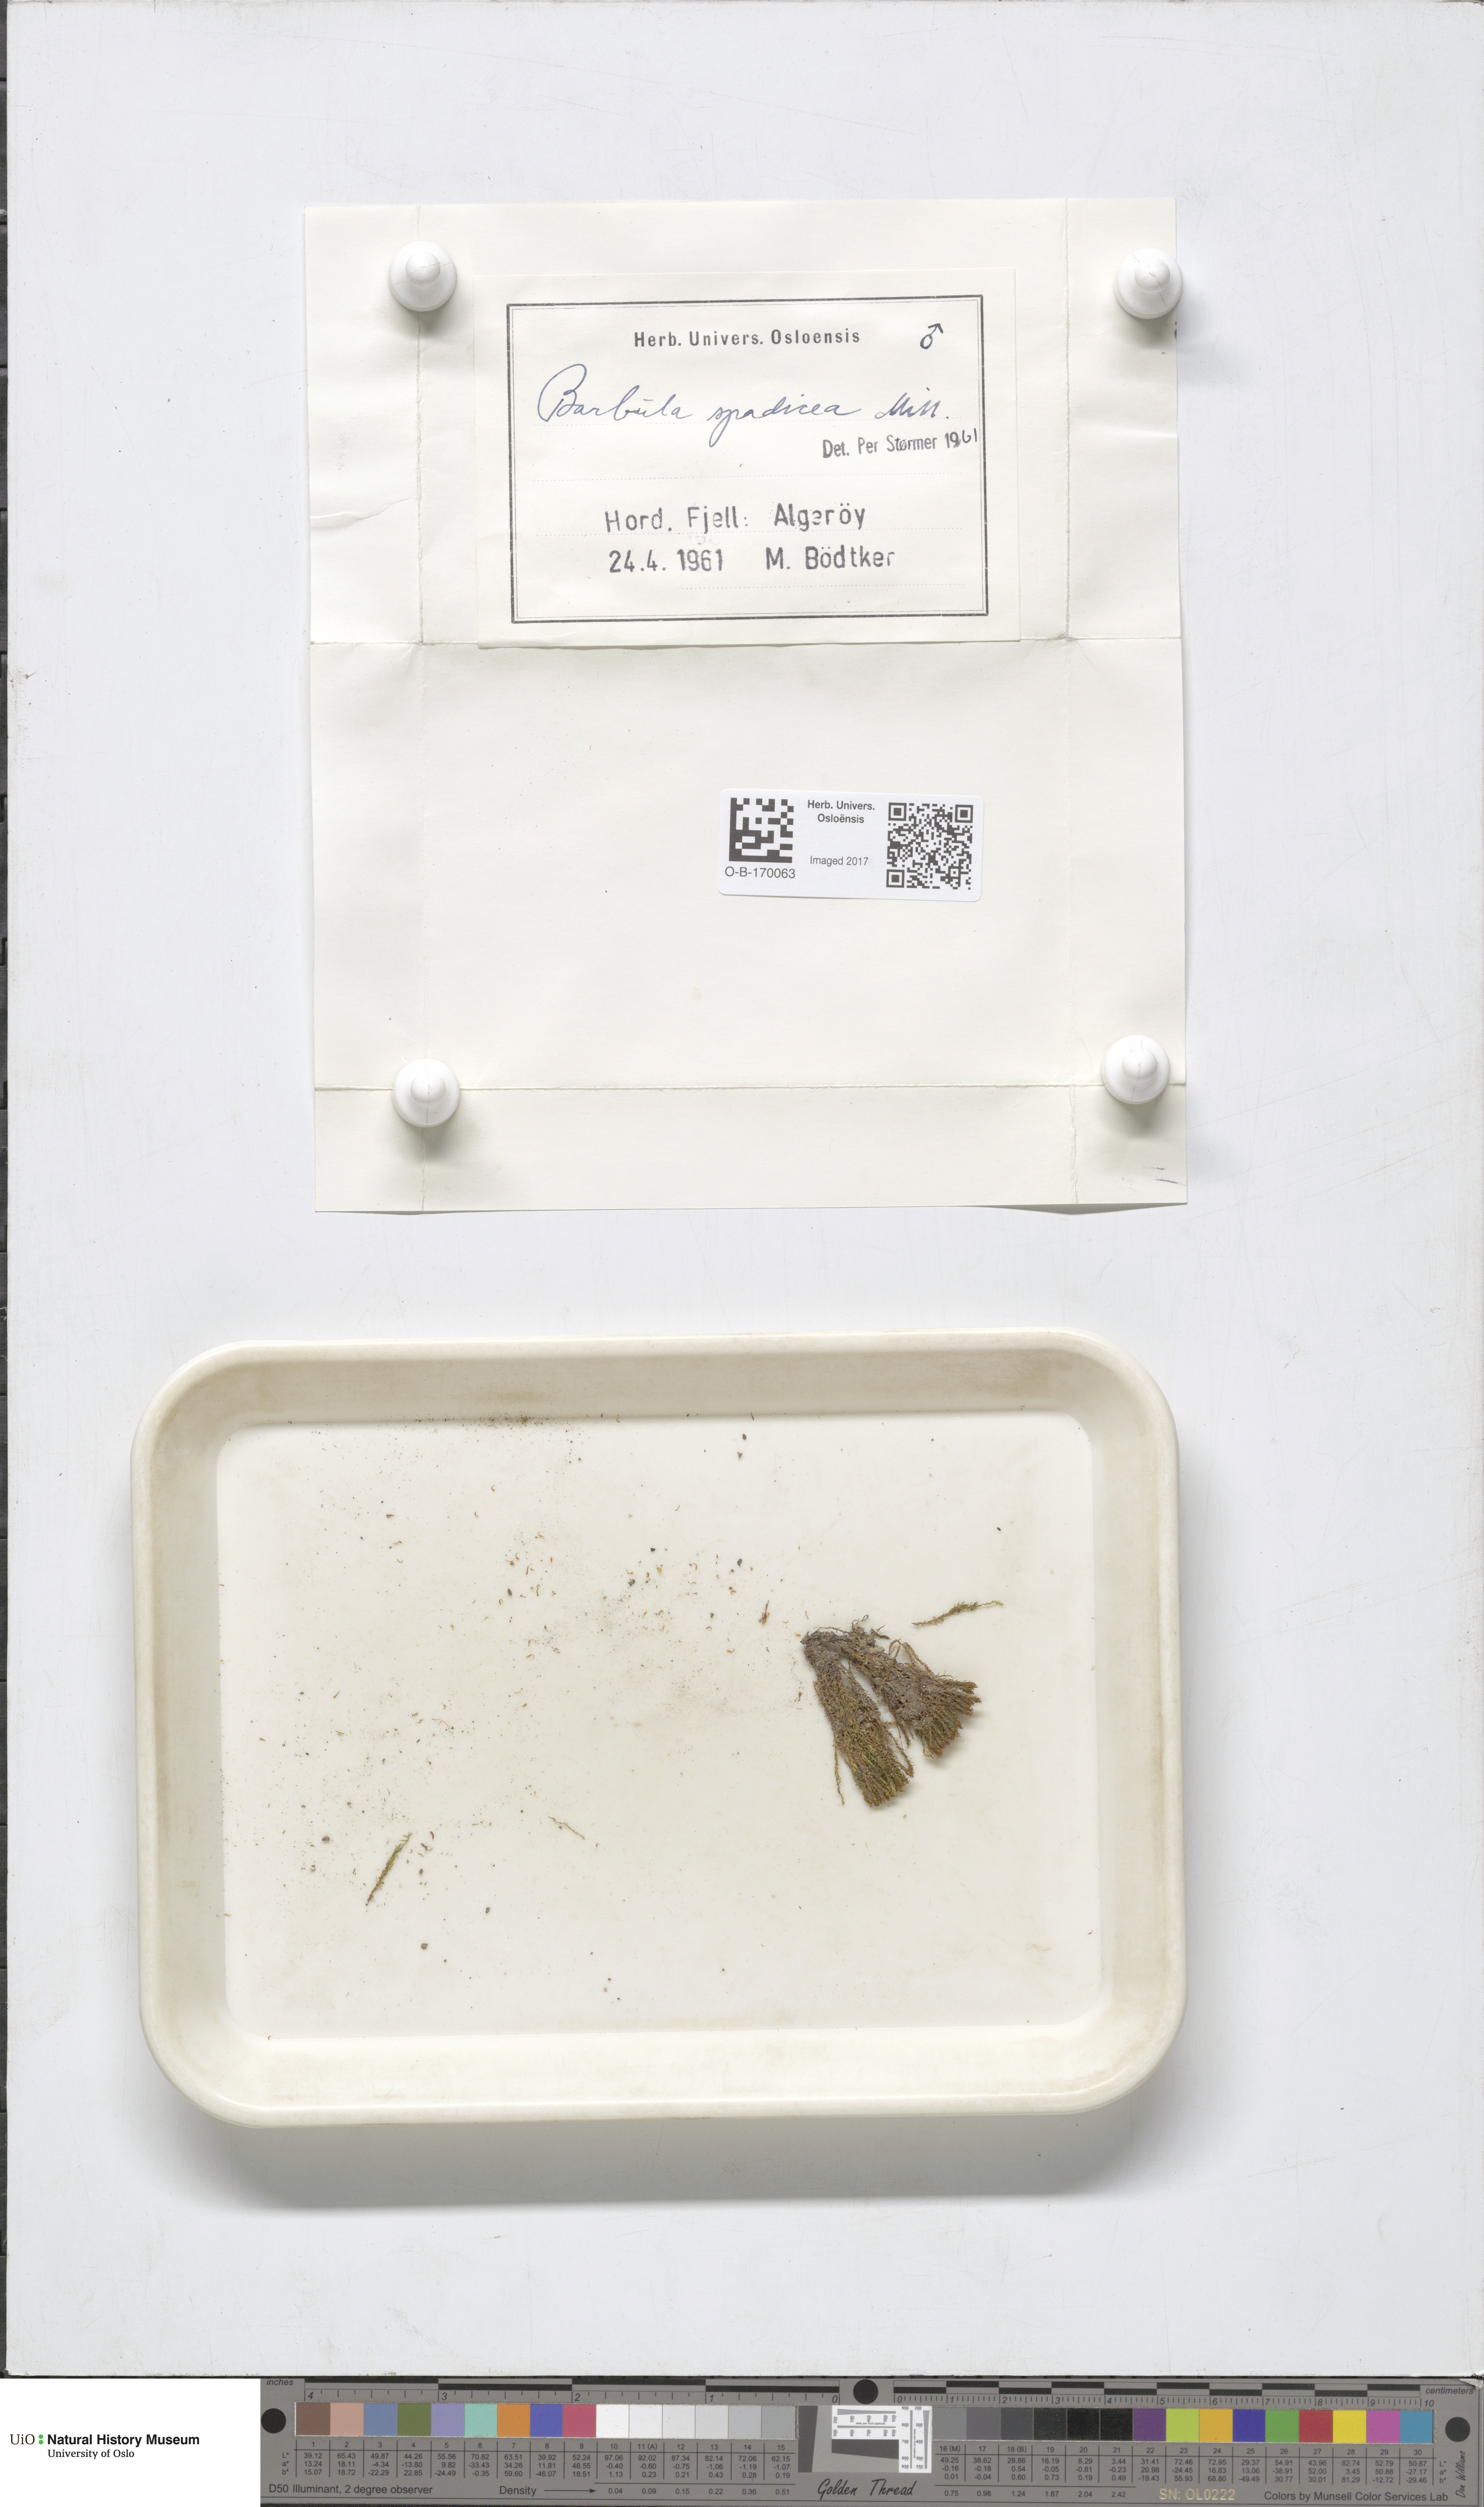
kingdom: Plantae
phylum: Bryophyta
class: Bryopsida
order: Pottiales
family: Pottiaceae
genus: Geheebia
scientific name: Geheebia spadicea
